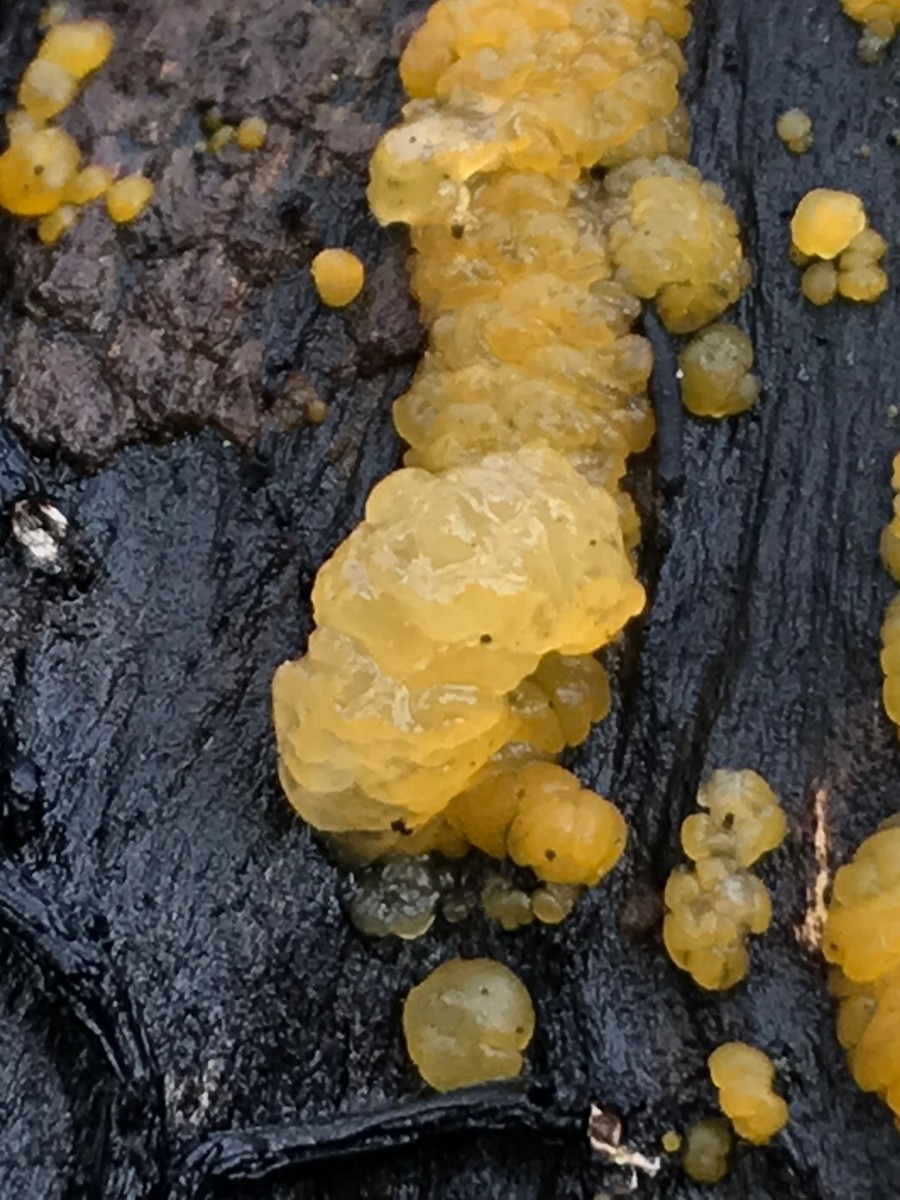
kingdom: Fungi
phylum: Basidiomycota
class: Dacrymycetes
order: Dacrymycetales
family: Dacrymycetaceae
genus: Dacrymyces
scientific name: Dacrymyces stillatus
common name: almindelig tåresvamp
